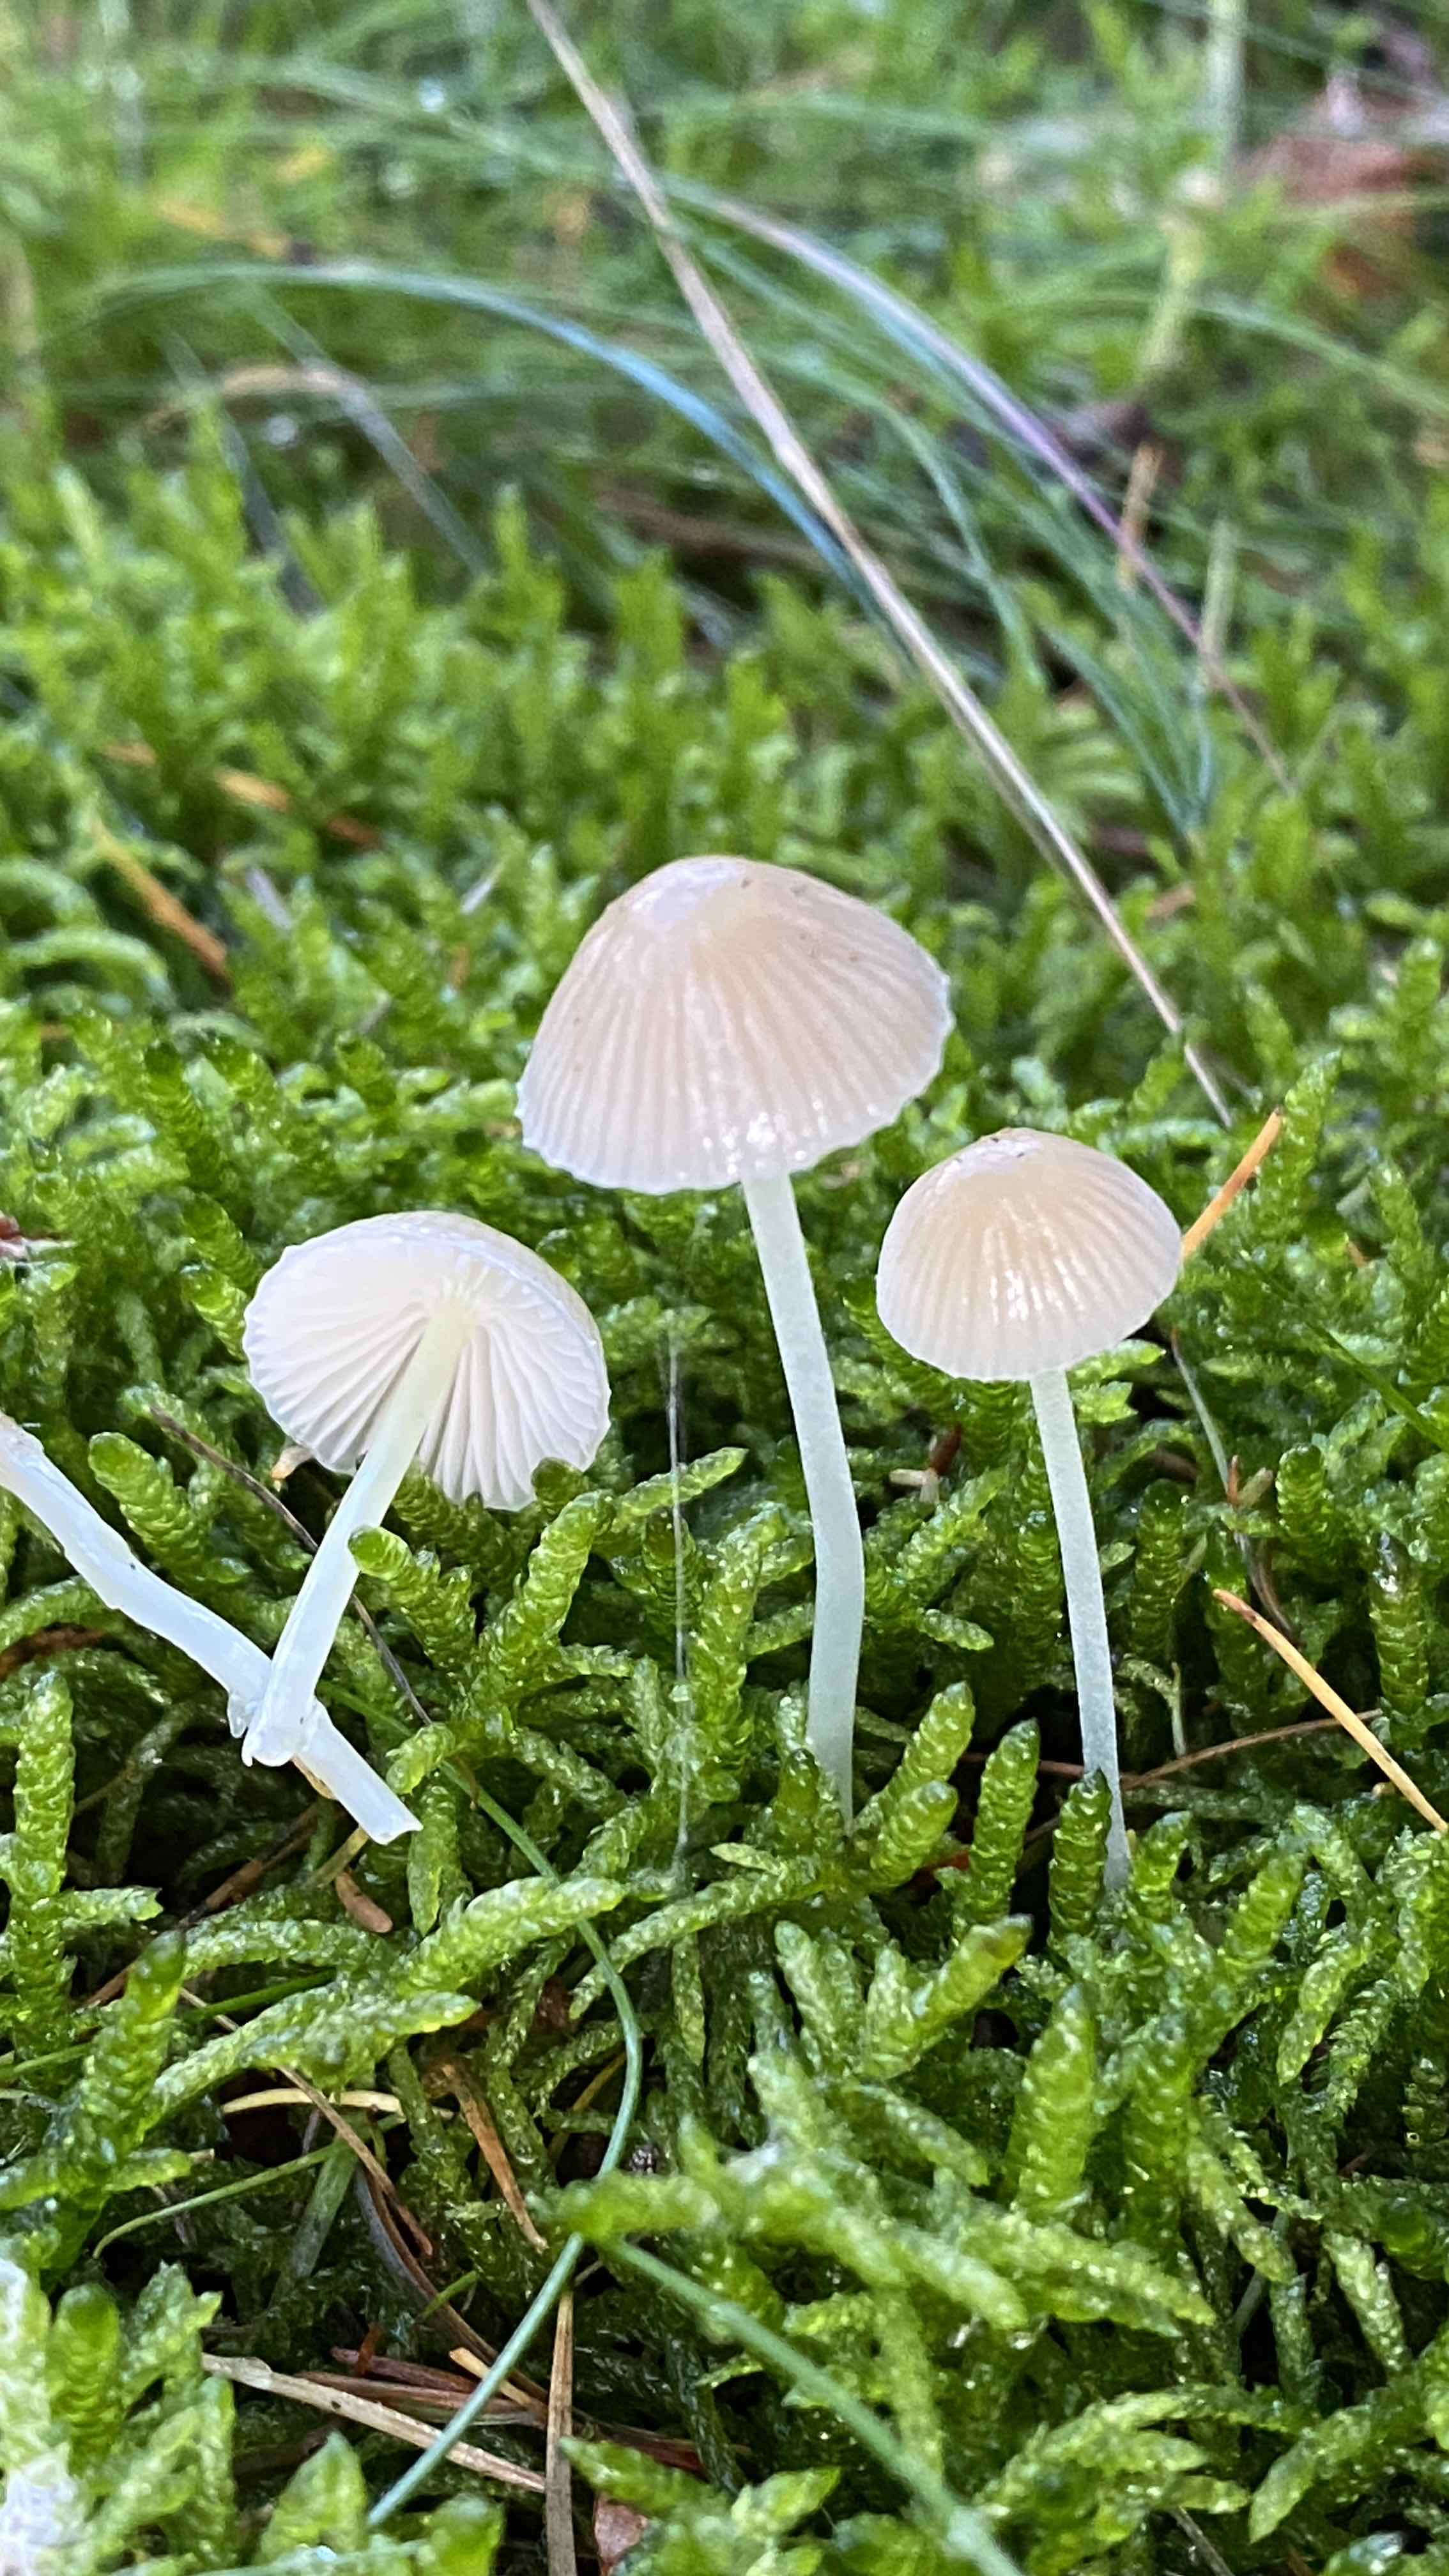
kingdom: Fungi
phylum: Basidiomycota
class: Agaricomycetes
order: Agaricales
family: Mycenaceae
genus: Mycena
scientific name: Mycena epipterygia
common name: gulstokket huesvamp
